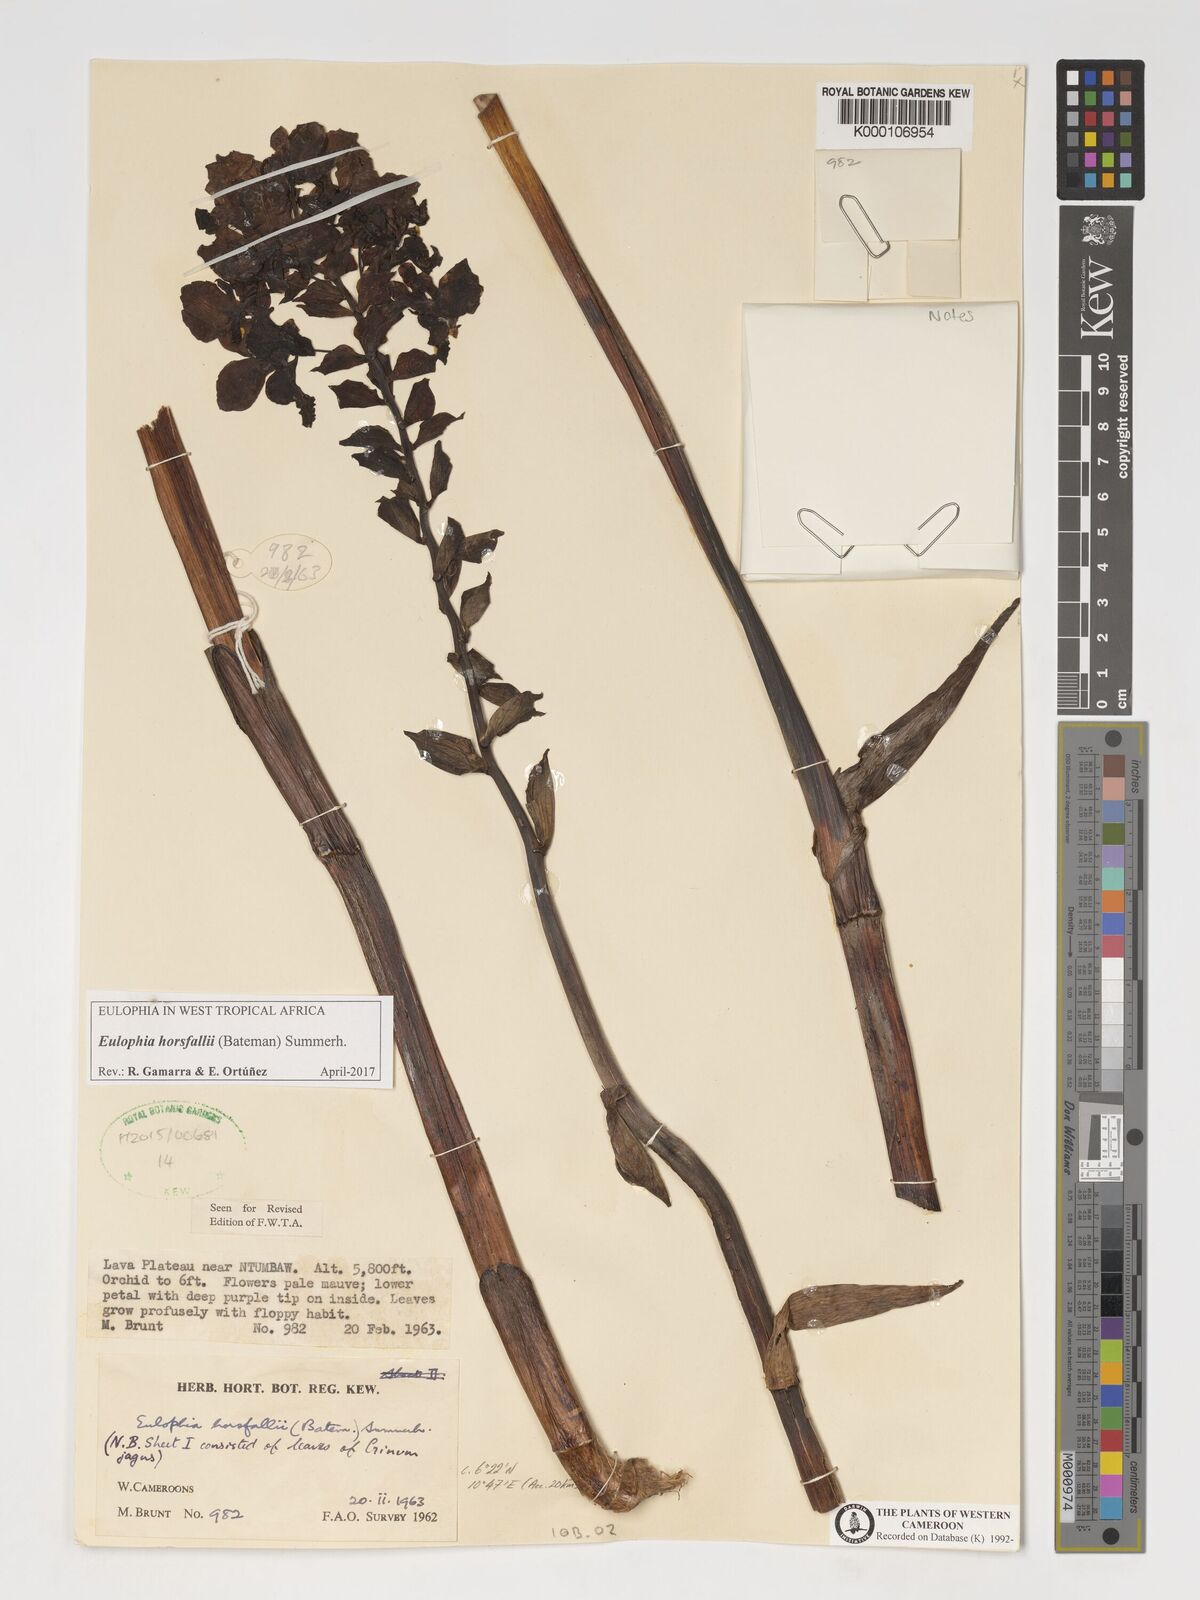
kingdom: Plantae
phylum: Tracheophyta
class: Liliopsida
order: Asparagales
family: Orchidaceae
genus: Eulophia
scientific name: Eulophia horsfallii
